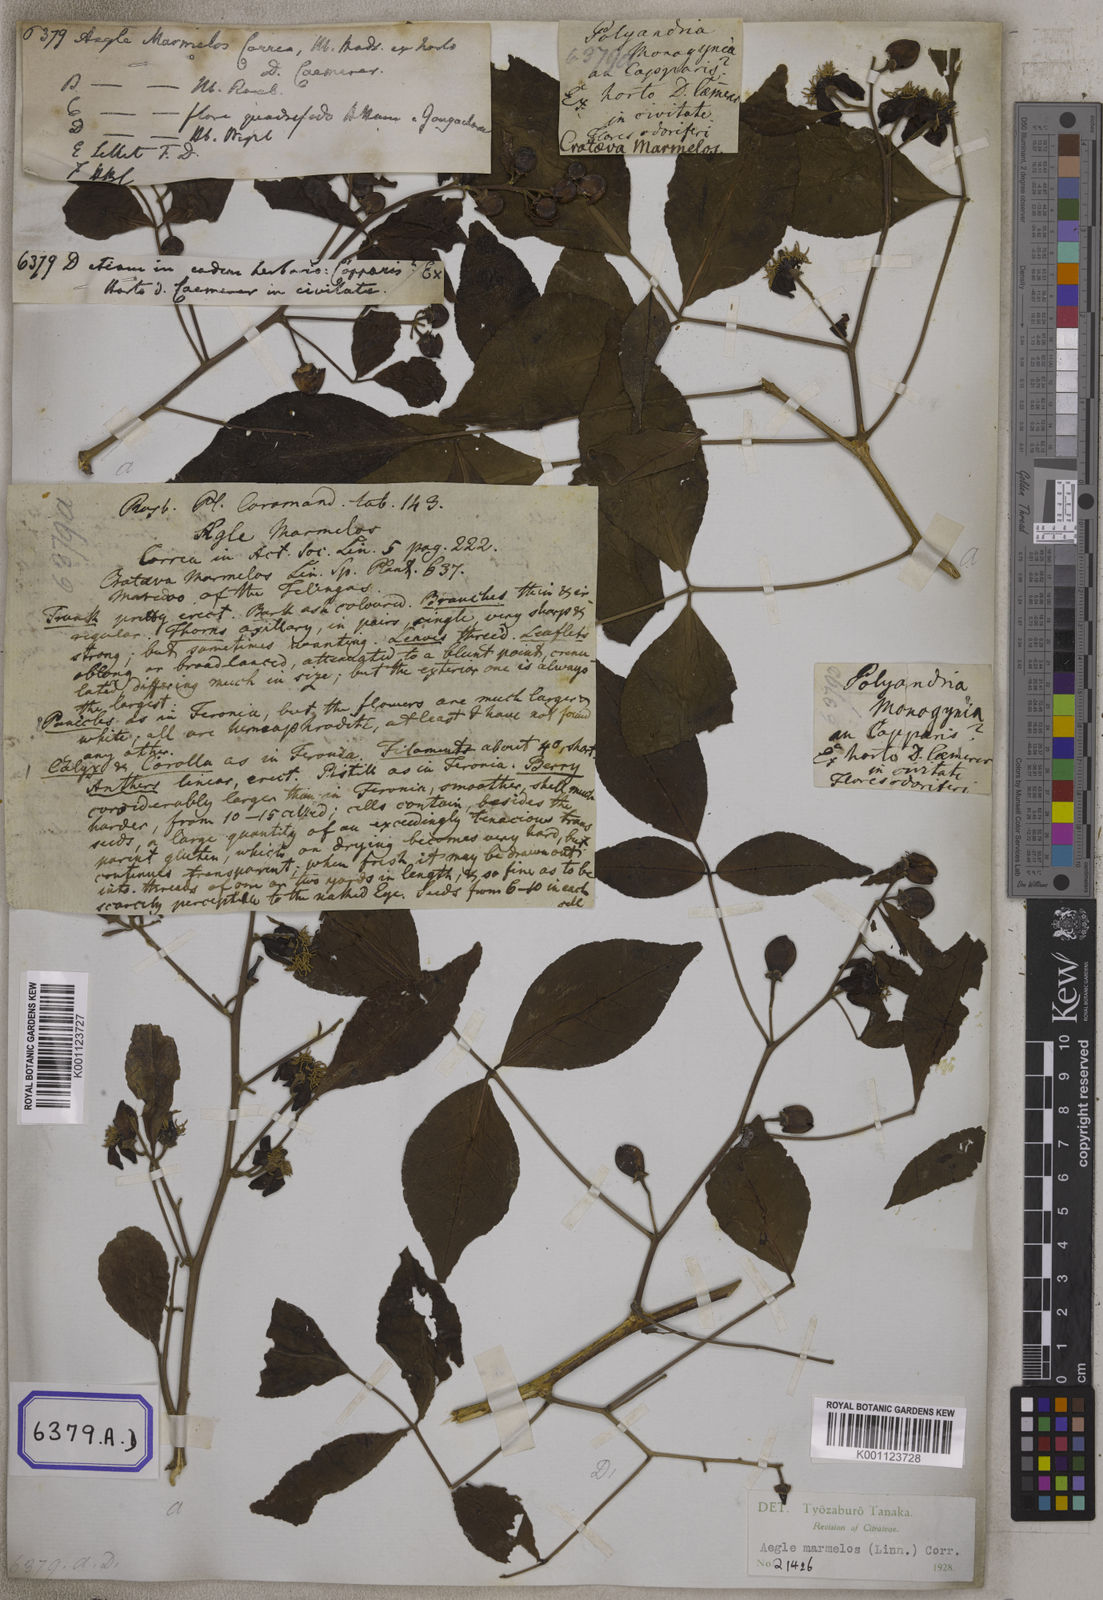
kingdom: Plantae
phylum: Tracheophyta
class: Magnoliopsida
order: Sapindales
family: Rutaceae
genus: Aegle
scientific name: Aegle marmelos
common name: Bael
